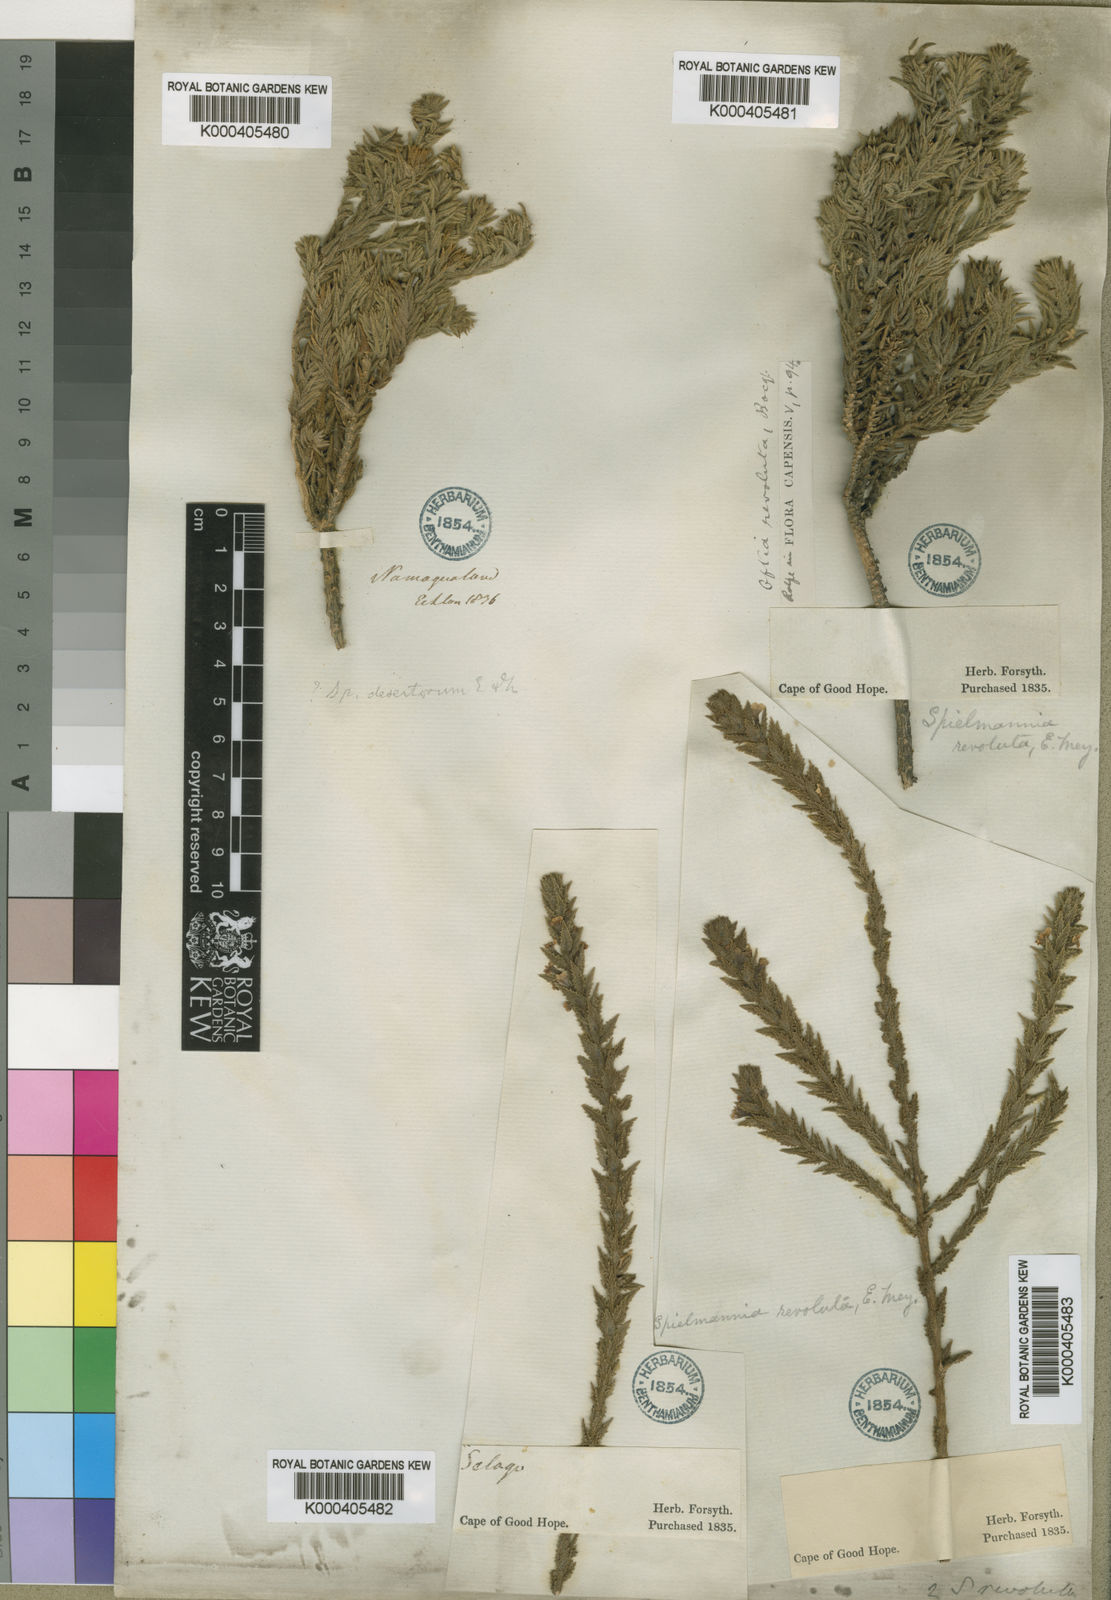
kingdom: Plantae
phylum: Tracheophyta
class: Magnoliopsida
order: Lamiales
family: Scrophulariaceae
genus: Oftia
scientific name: Oftia
